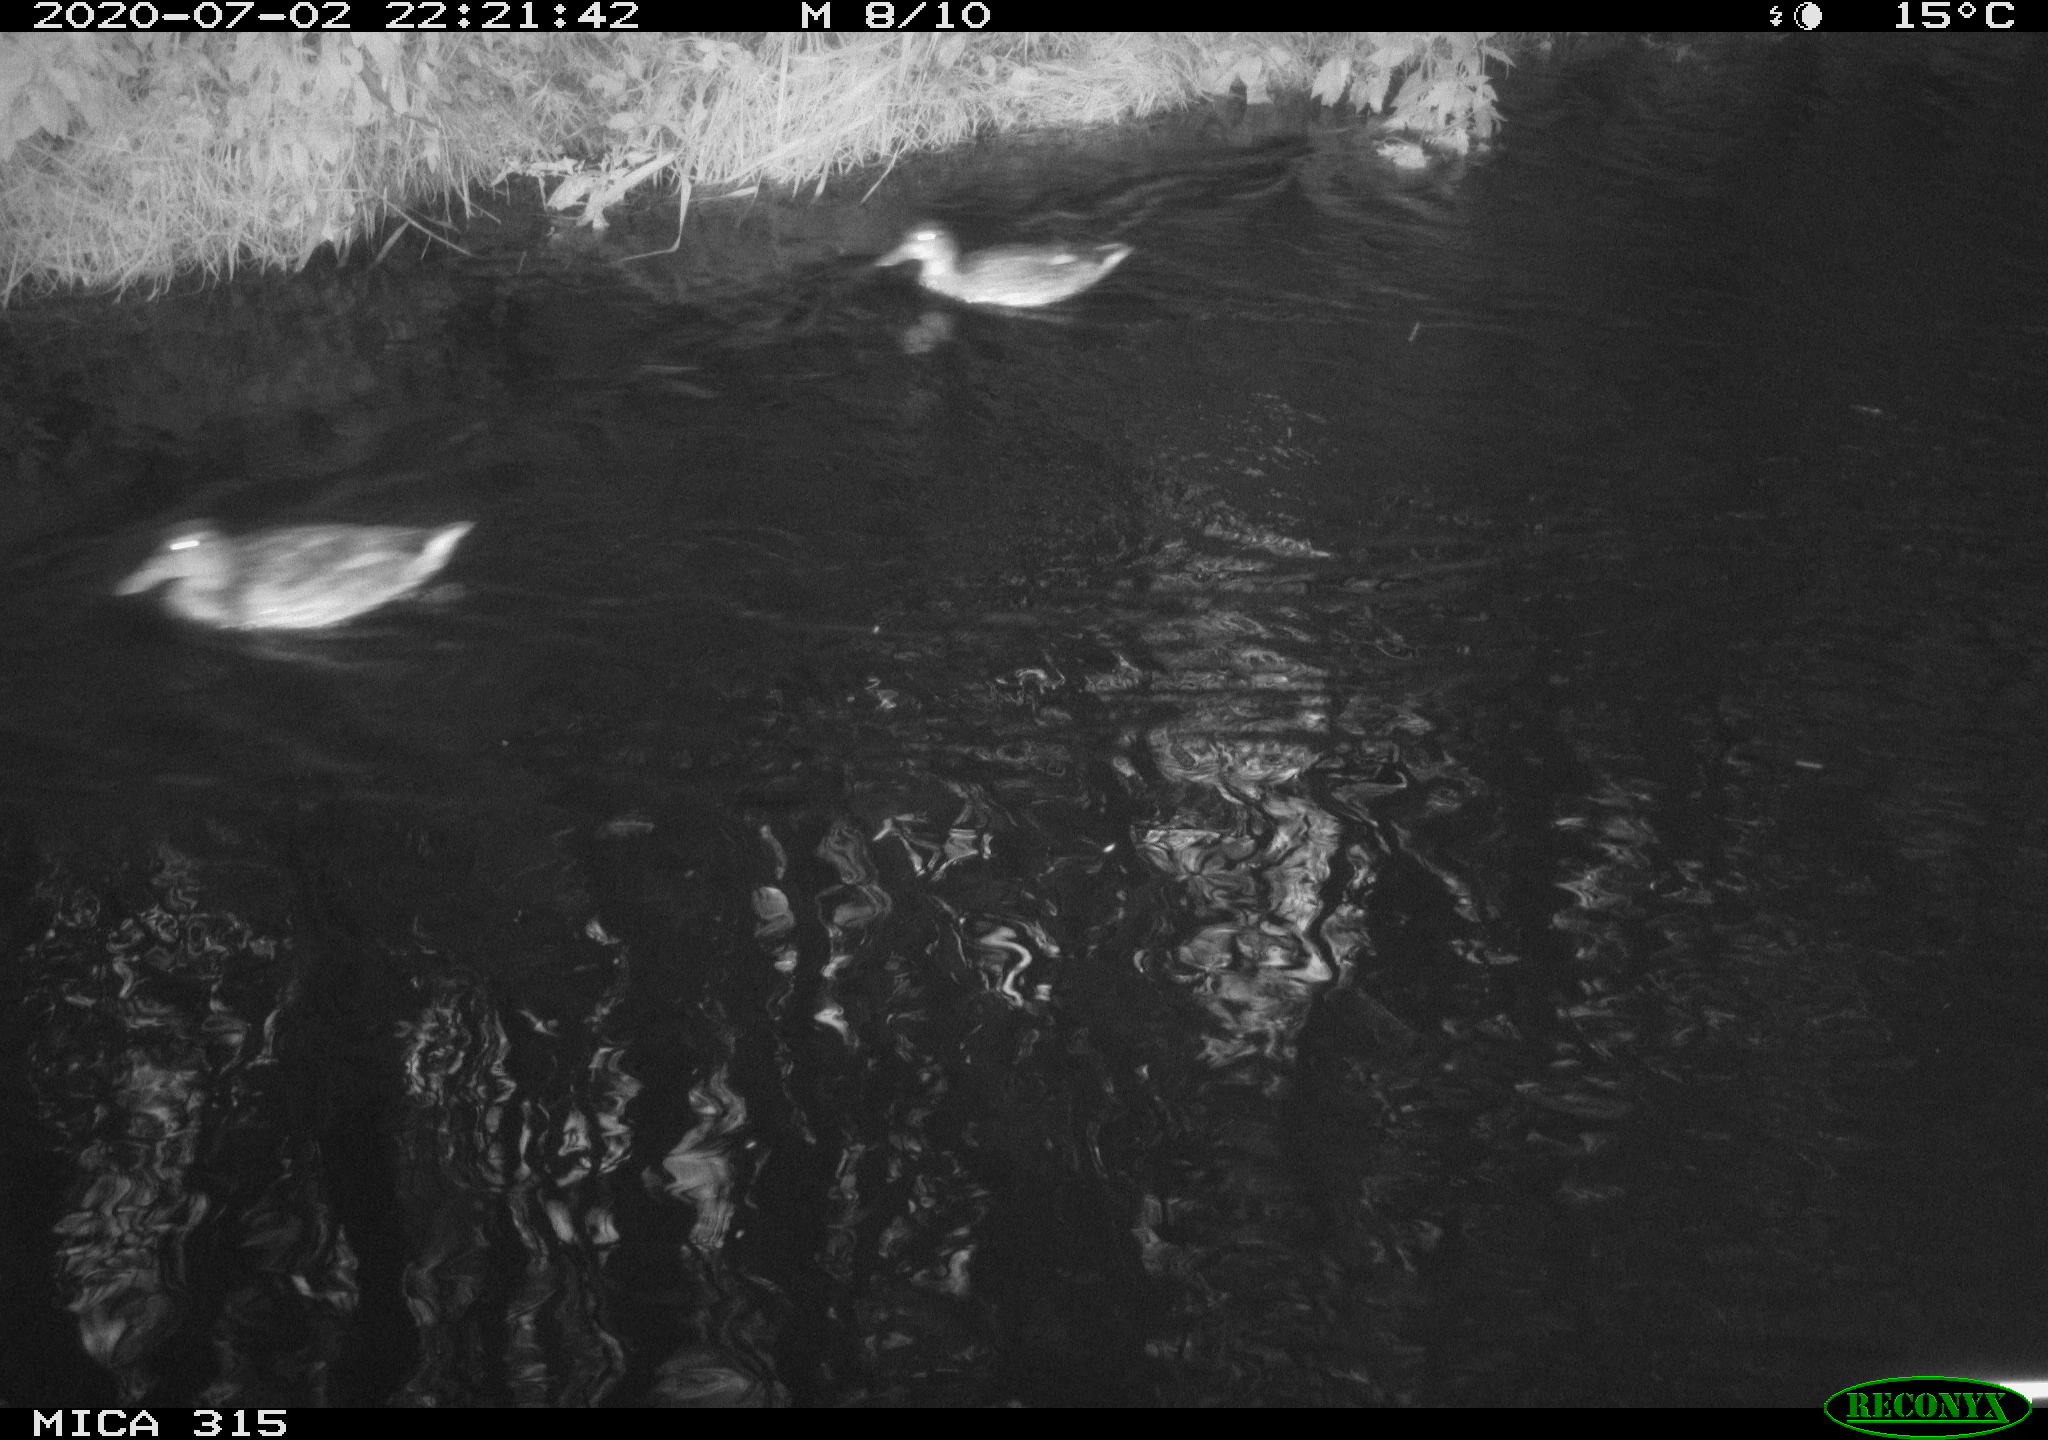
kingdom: Animalia
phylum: Chordata
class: Aves
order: Anseriformes
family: Anatidae
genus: Anas
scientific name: Anas platyrhynchos
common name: Mallard
